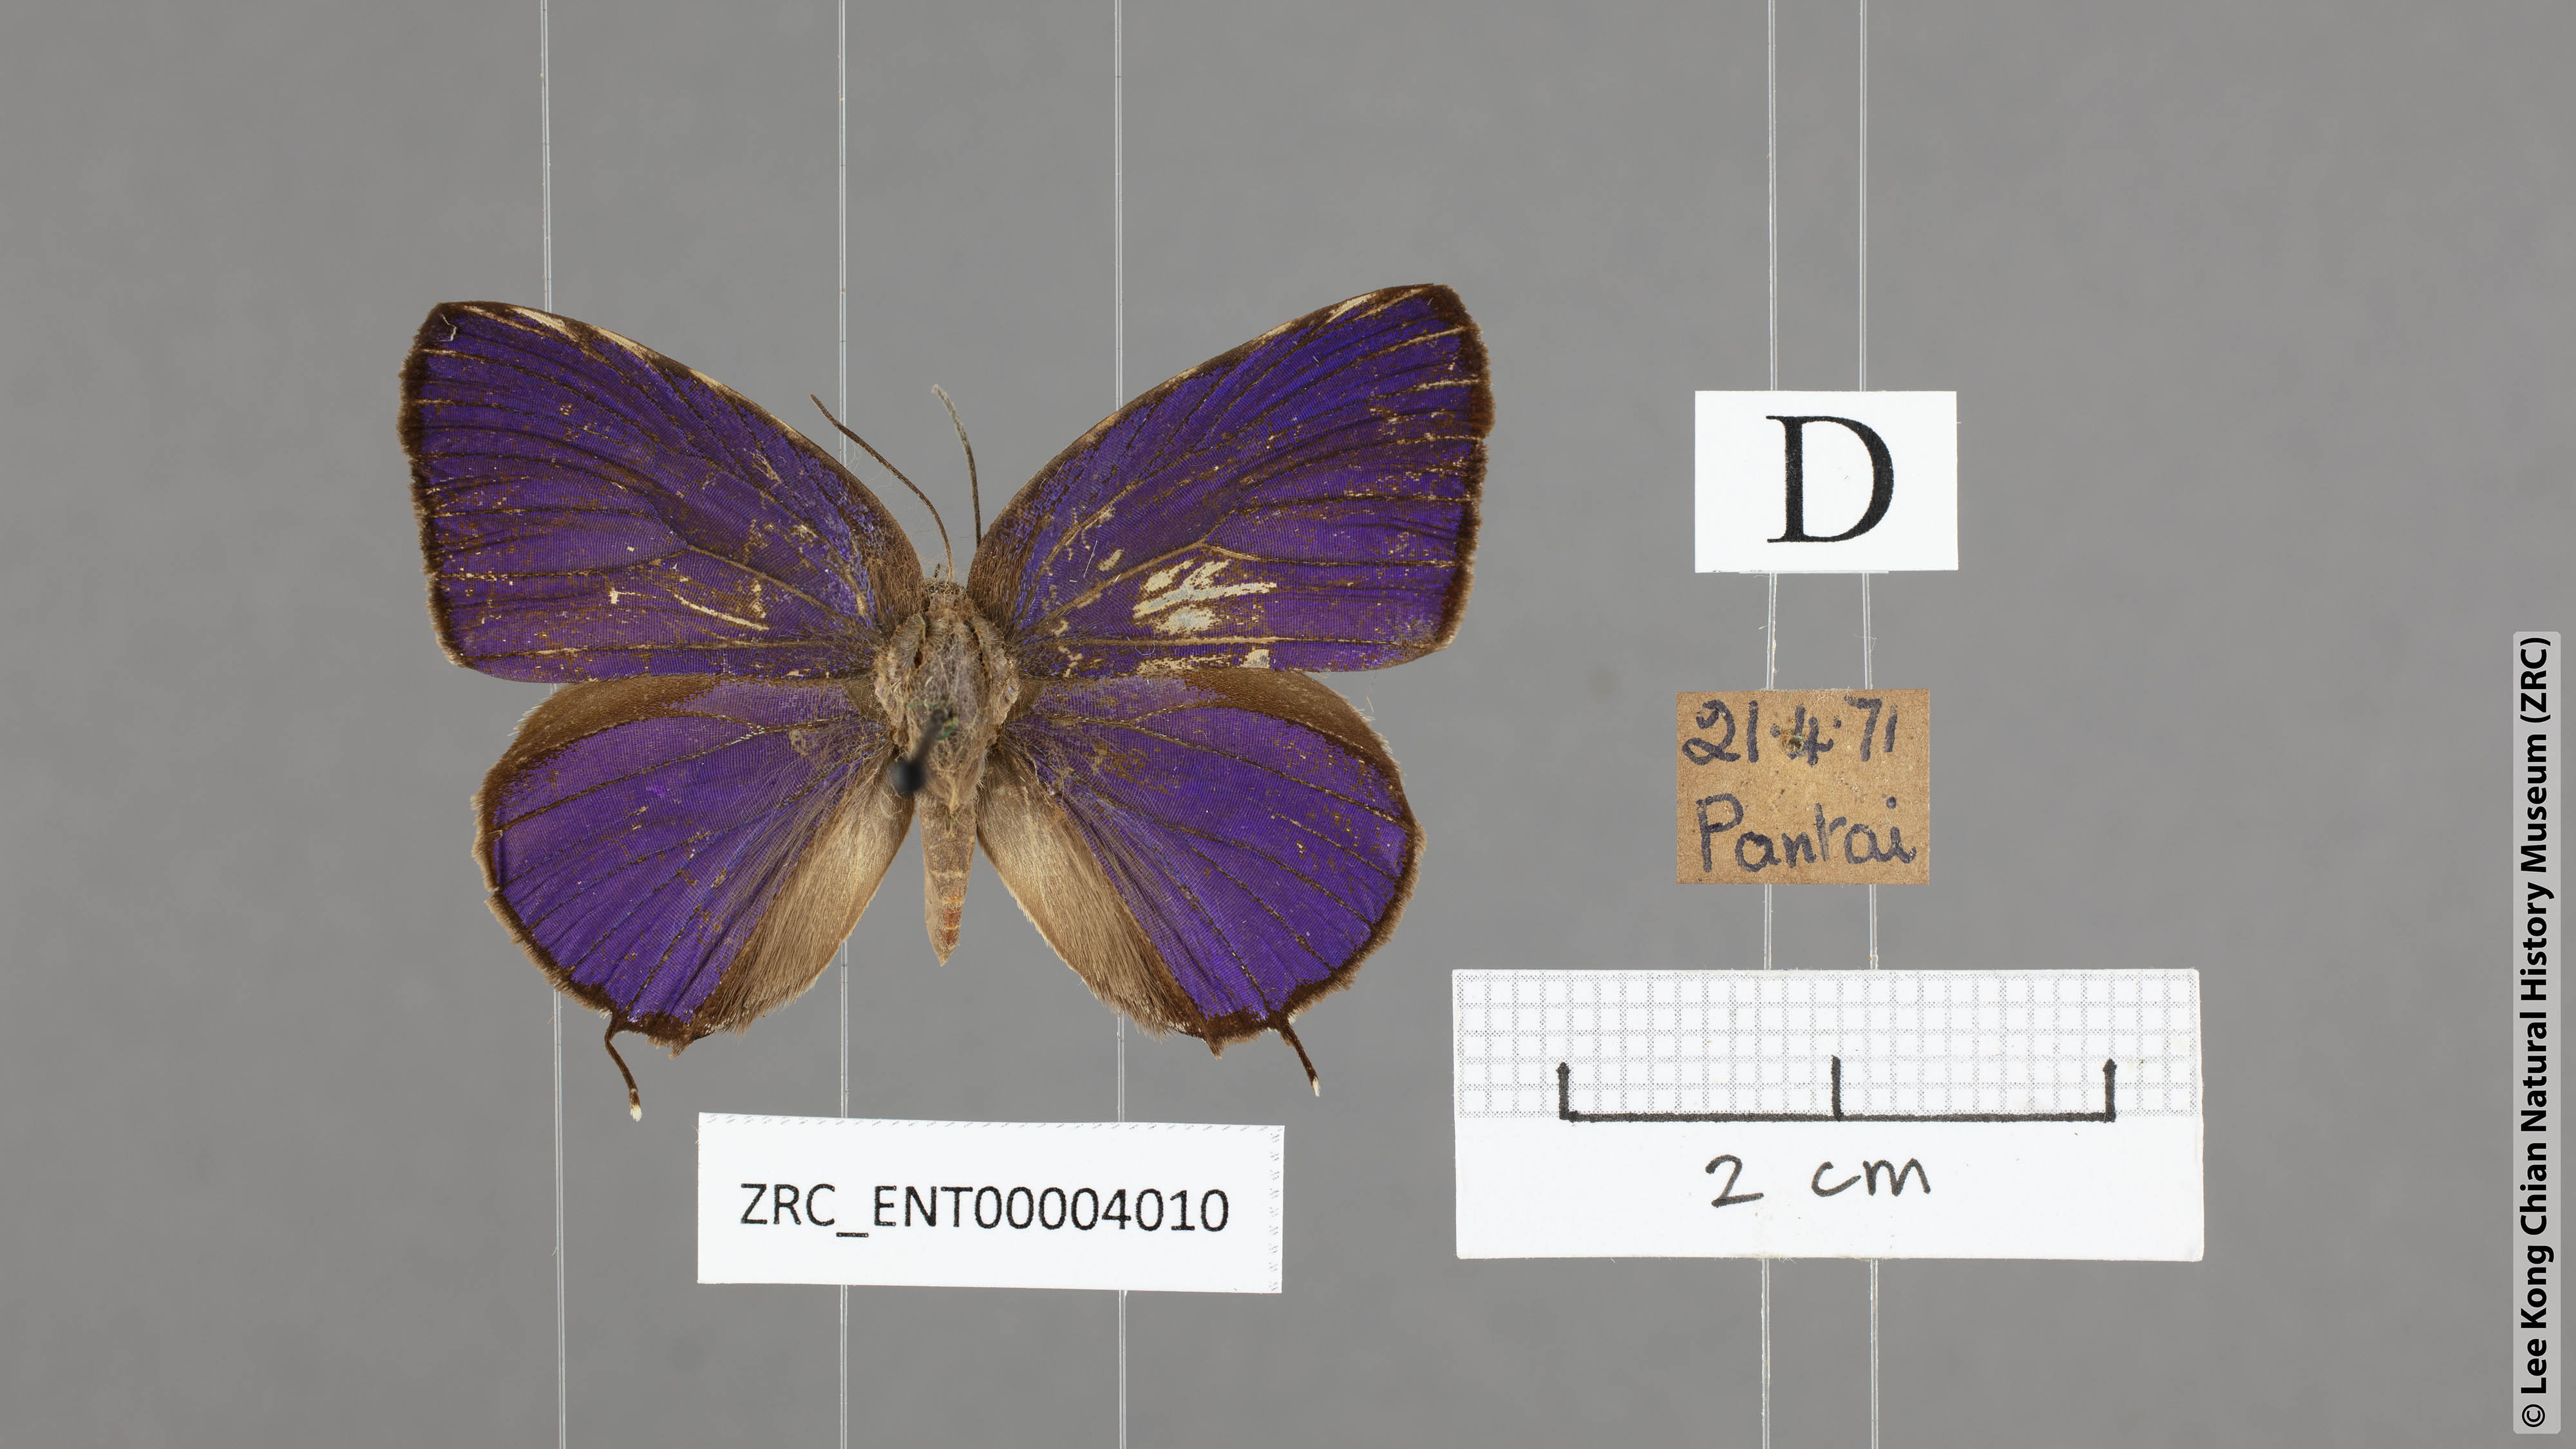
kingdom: Animalia
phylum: Arthropoda
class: Insecta
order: Lepidoptera
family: Lycaenidae
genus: Arhopala
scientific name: Arhopala myrzala
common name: Malayan oakblue
